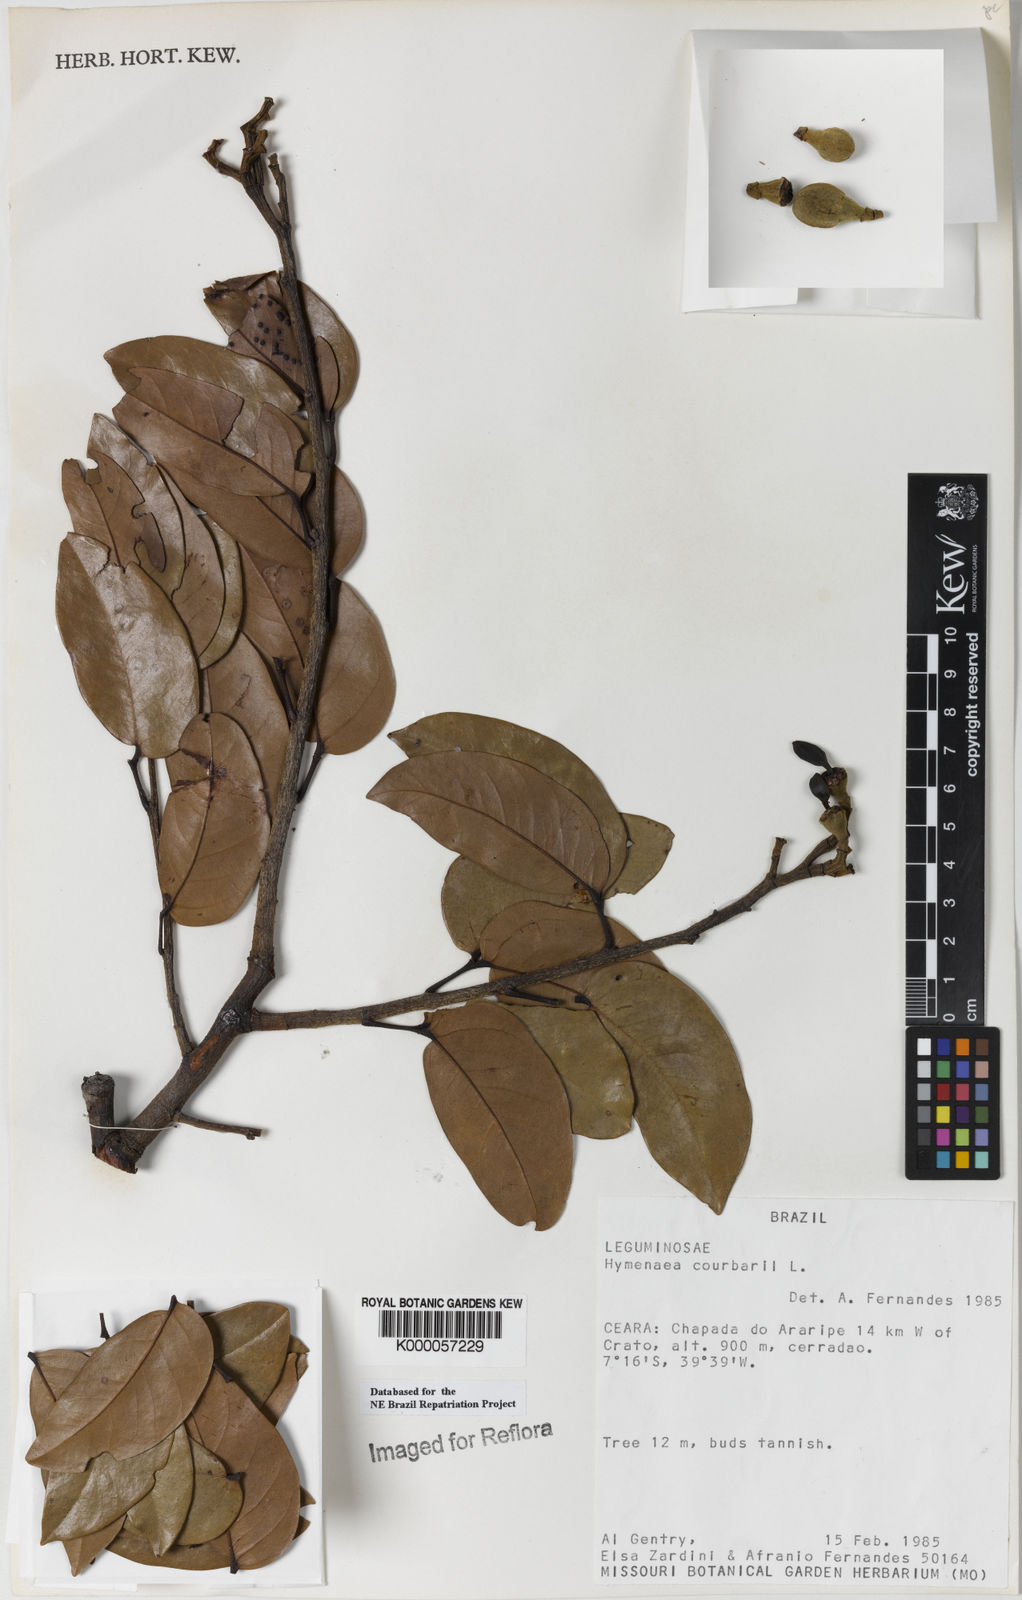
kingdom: Plantae
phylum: Tracheophyta
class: Magnoliopsida
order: Fabales
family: Fabaceae
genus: Hymenaea
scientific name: Hymenaea courbaril
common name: Brazilian copal
